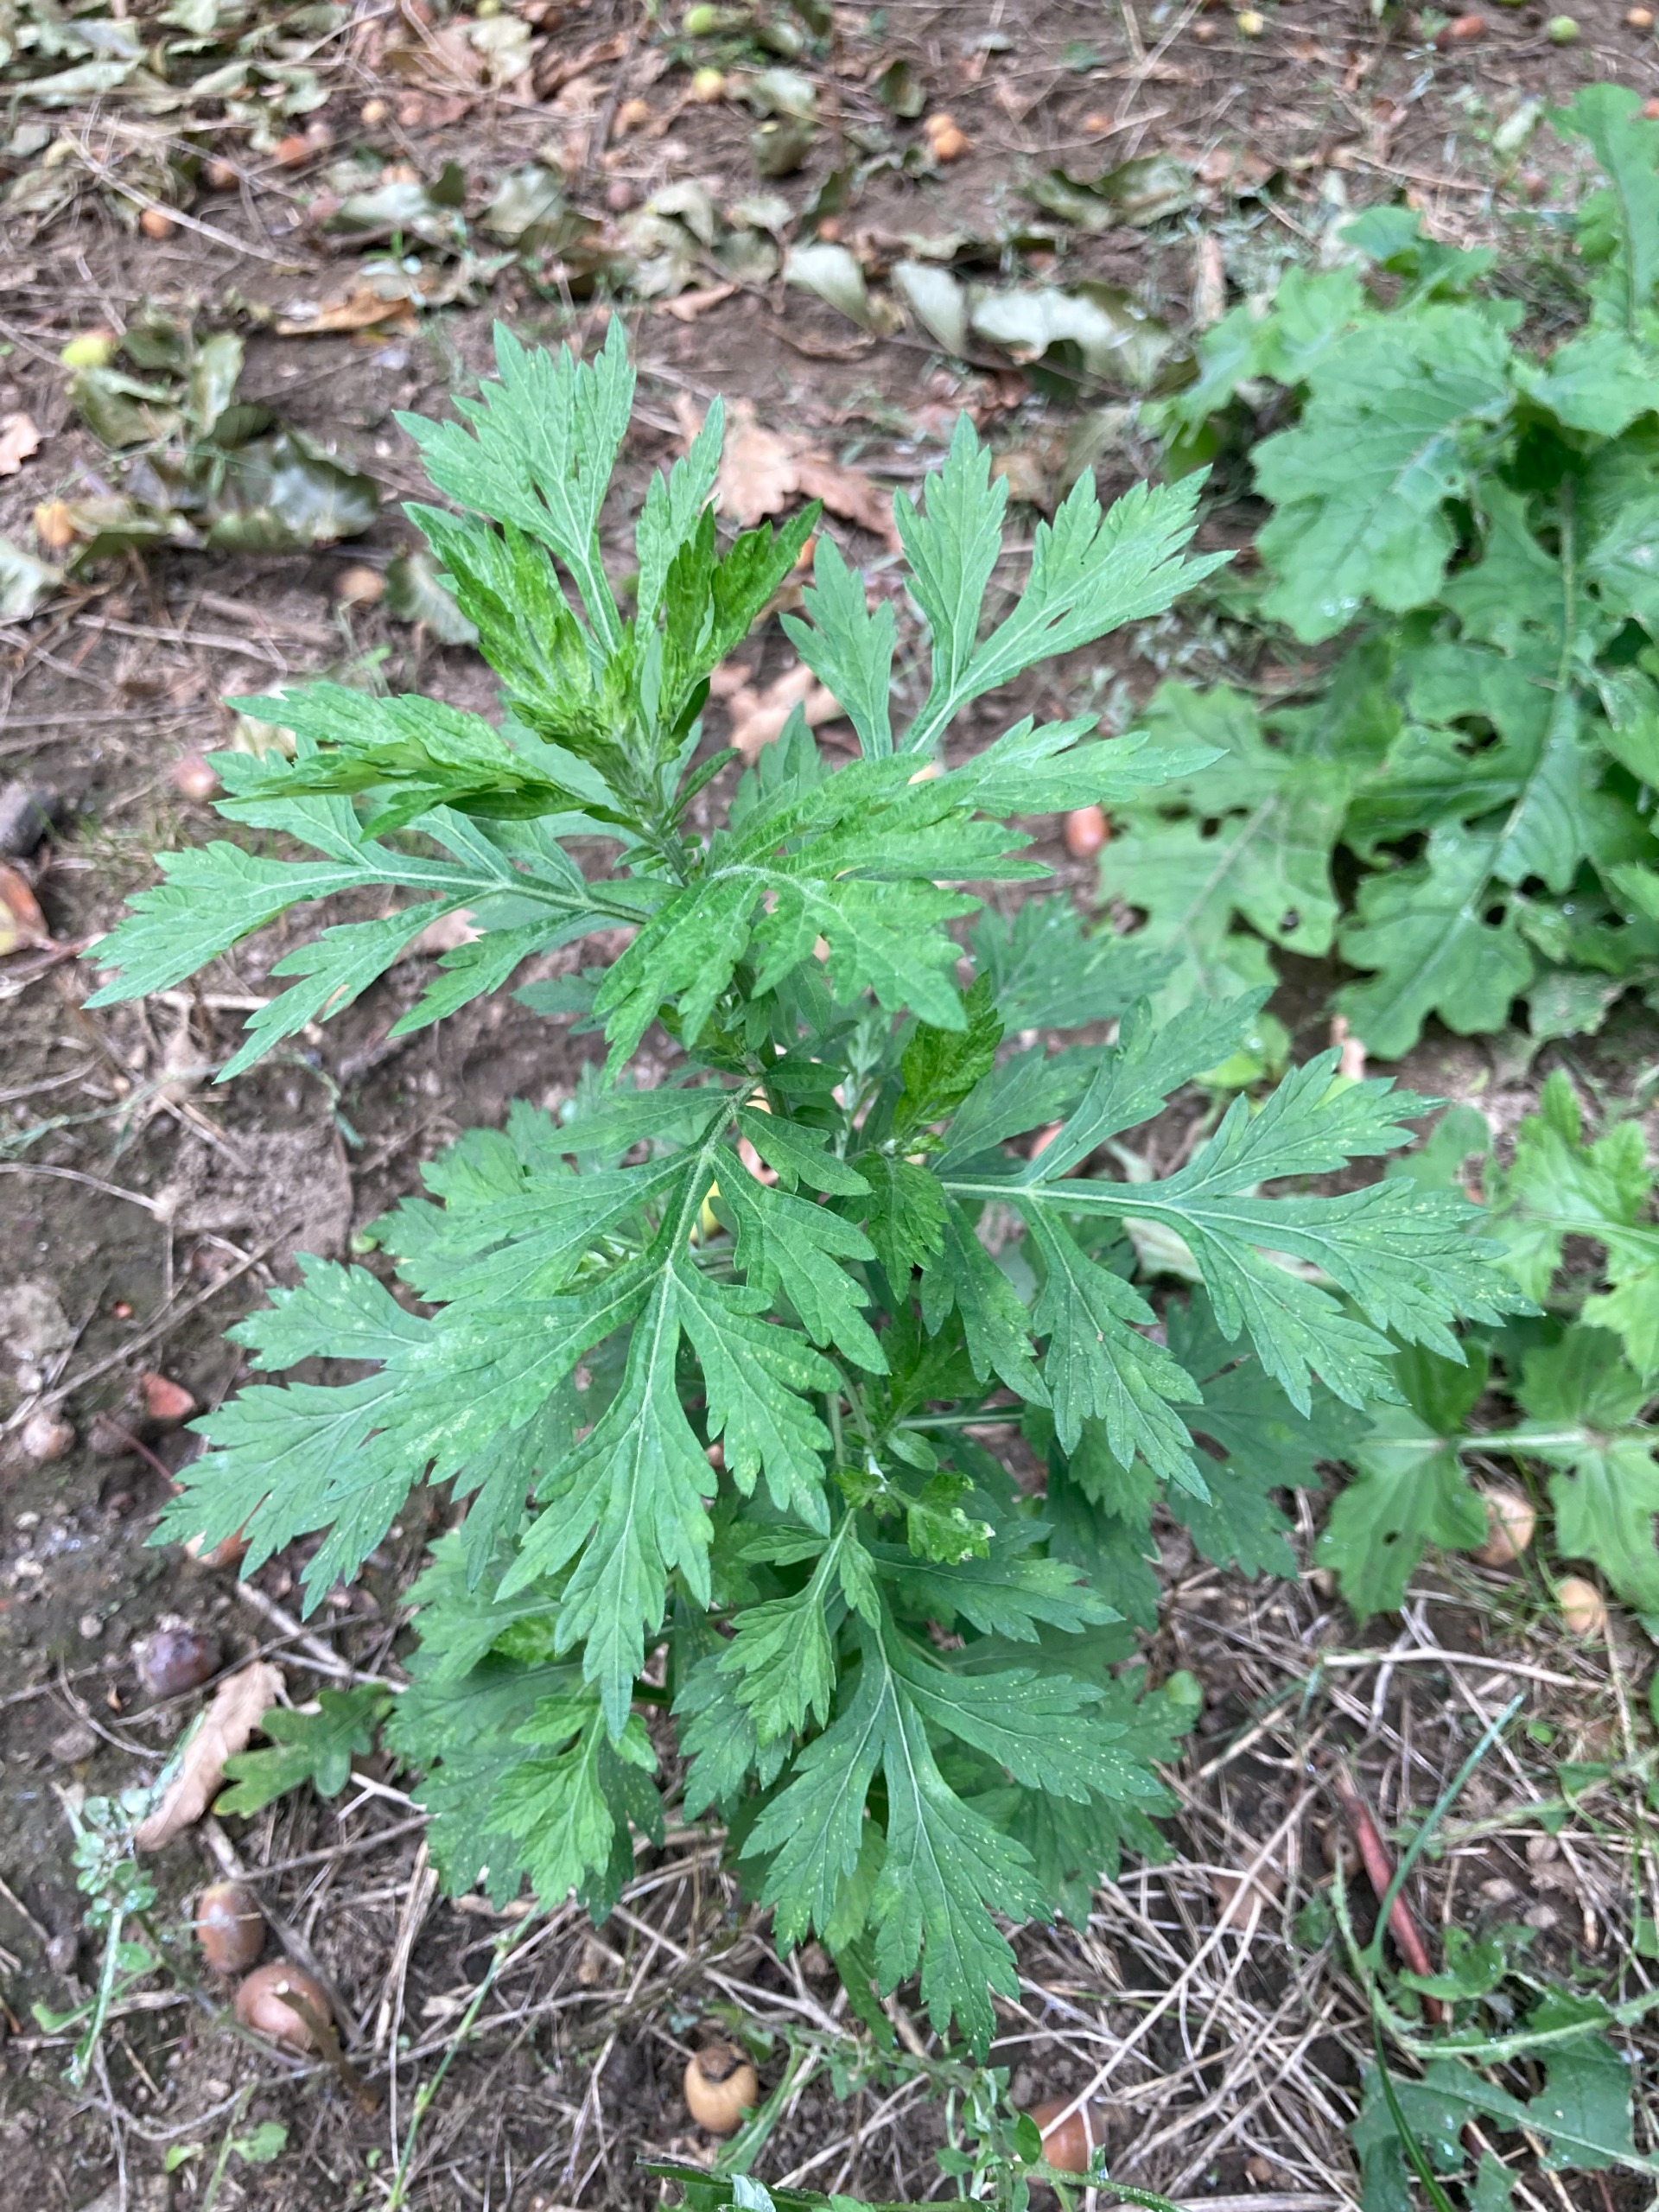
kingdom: Plantae
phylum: Tracheophyta
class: Magnoliopsida
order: Asterales
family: Asteraceae
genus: Artemisia
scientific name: Artemisia vulgaris
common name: Grå-bynke
